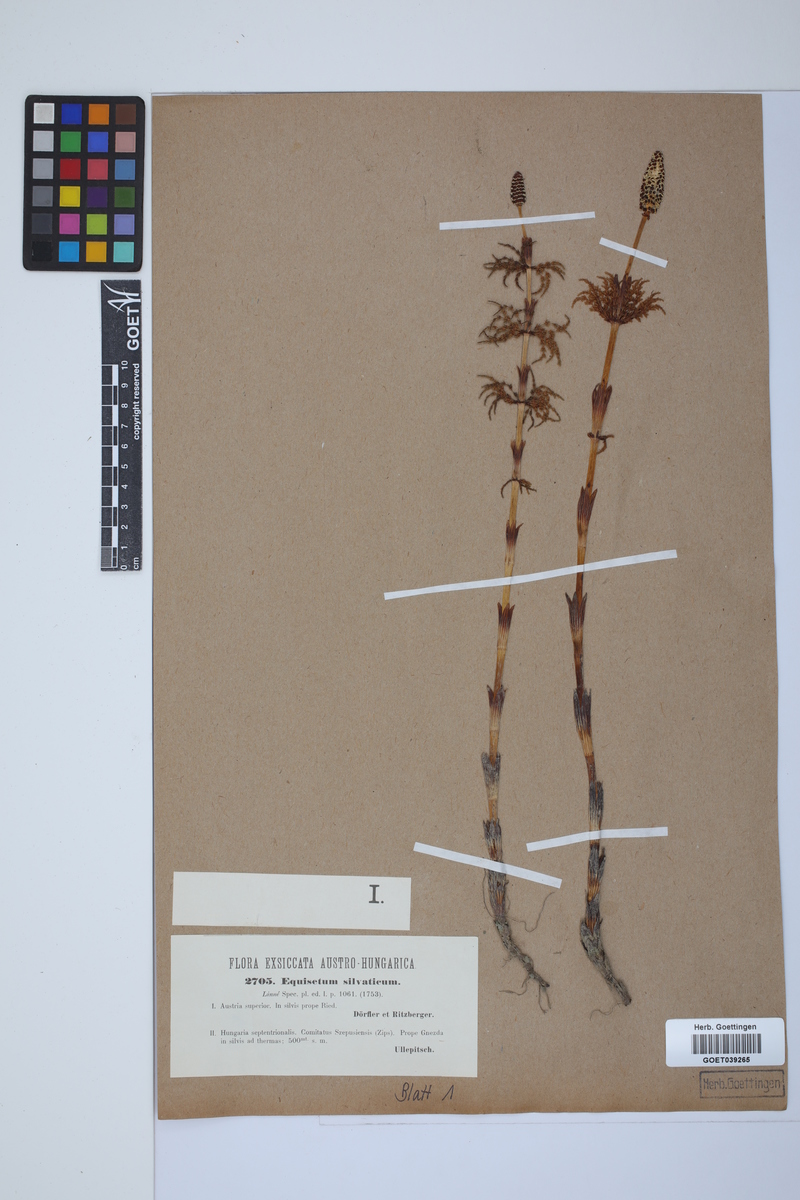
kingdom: Plantae
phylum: Tracheophyta
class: Polypodiopsida
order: Equisetales
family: Equisetaceae
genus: Equisetum
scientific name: Equisetum sylvaticum
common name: Wood horsetail
